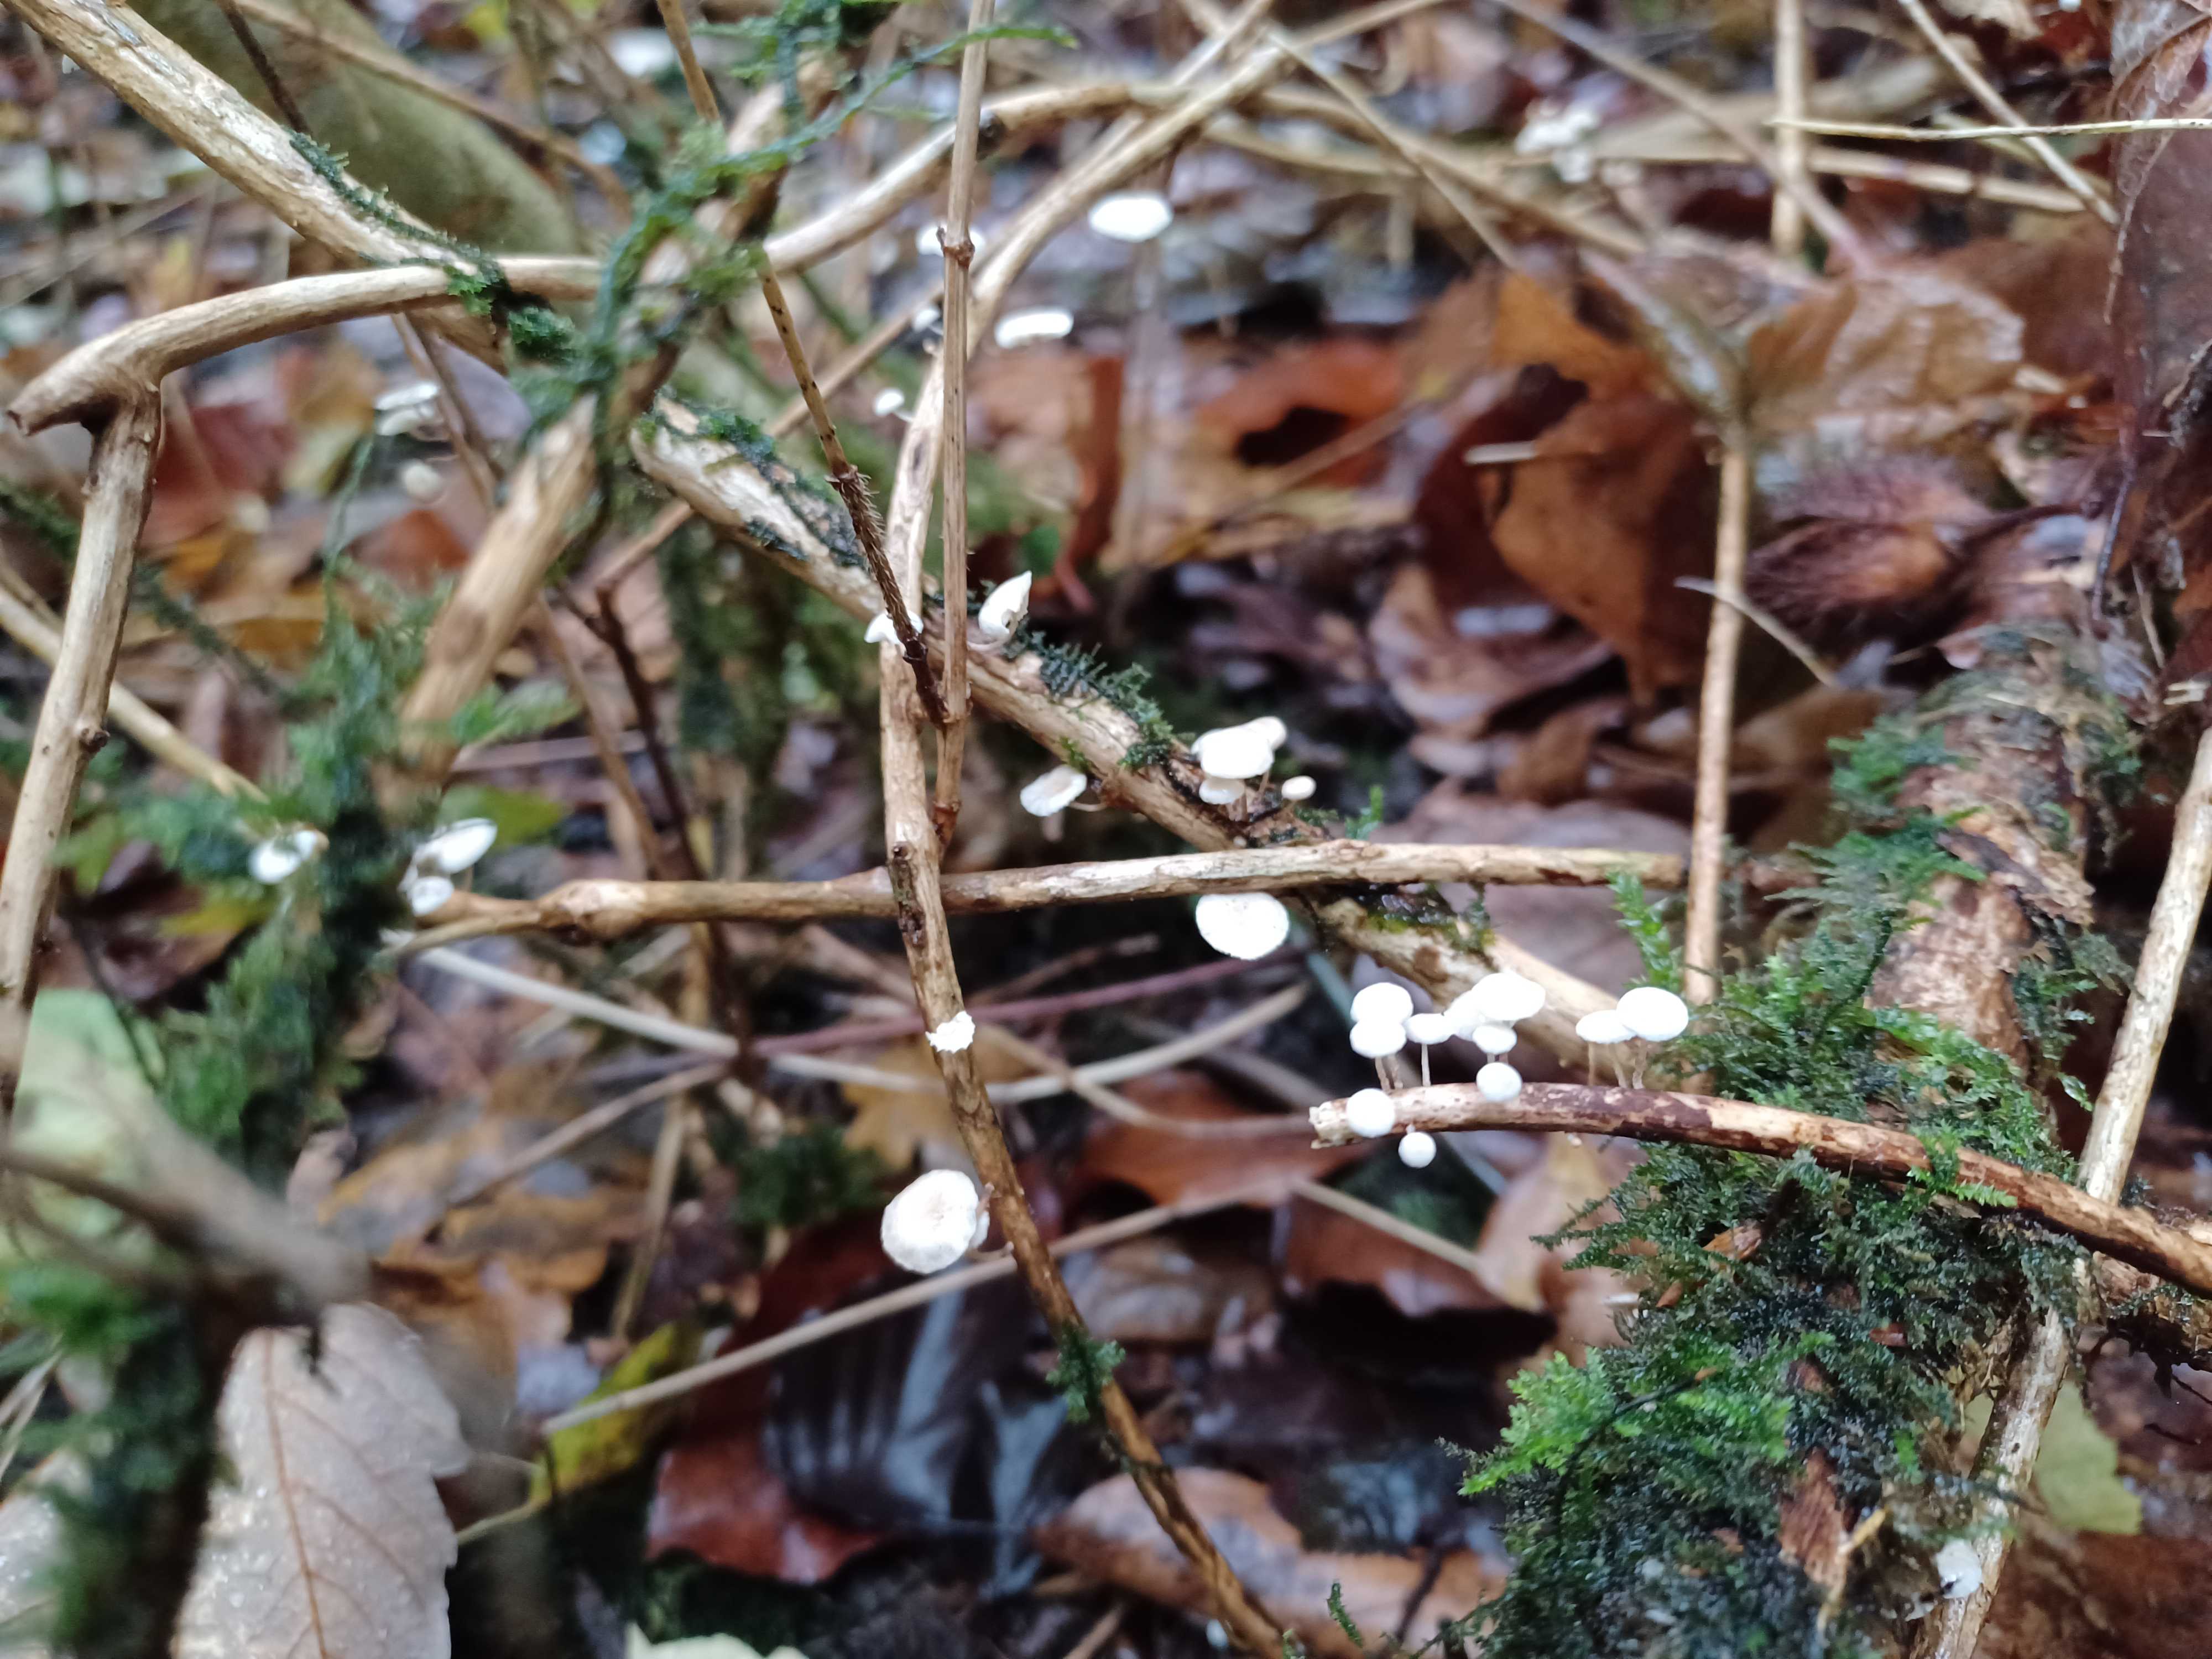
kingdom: Fungi
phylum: Basidiomycota
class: Agaricomycetes
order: Agaricales
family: Omphalotaceae
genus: Collybiopsis
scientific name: Collybiopsis ramealis
